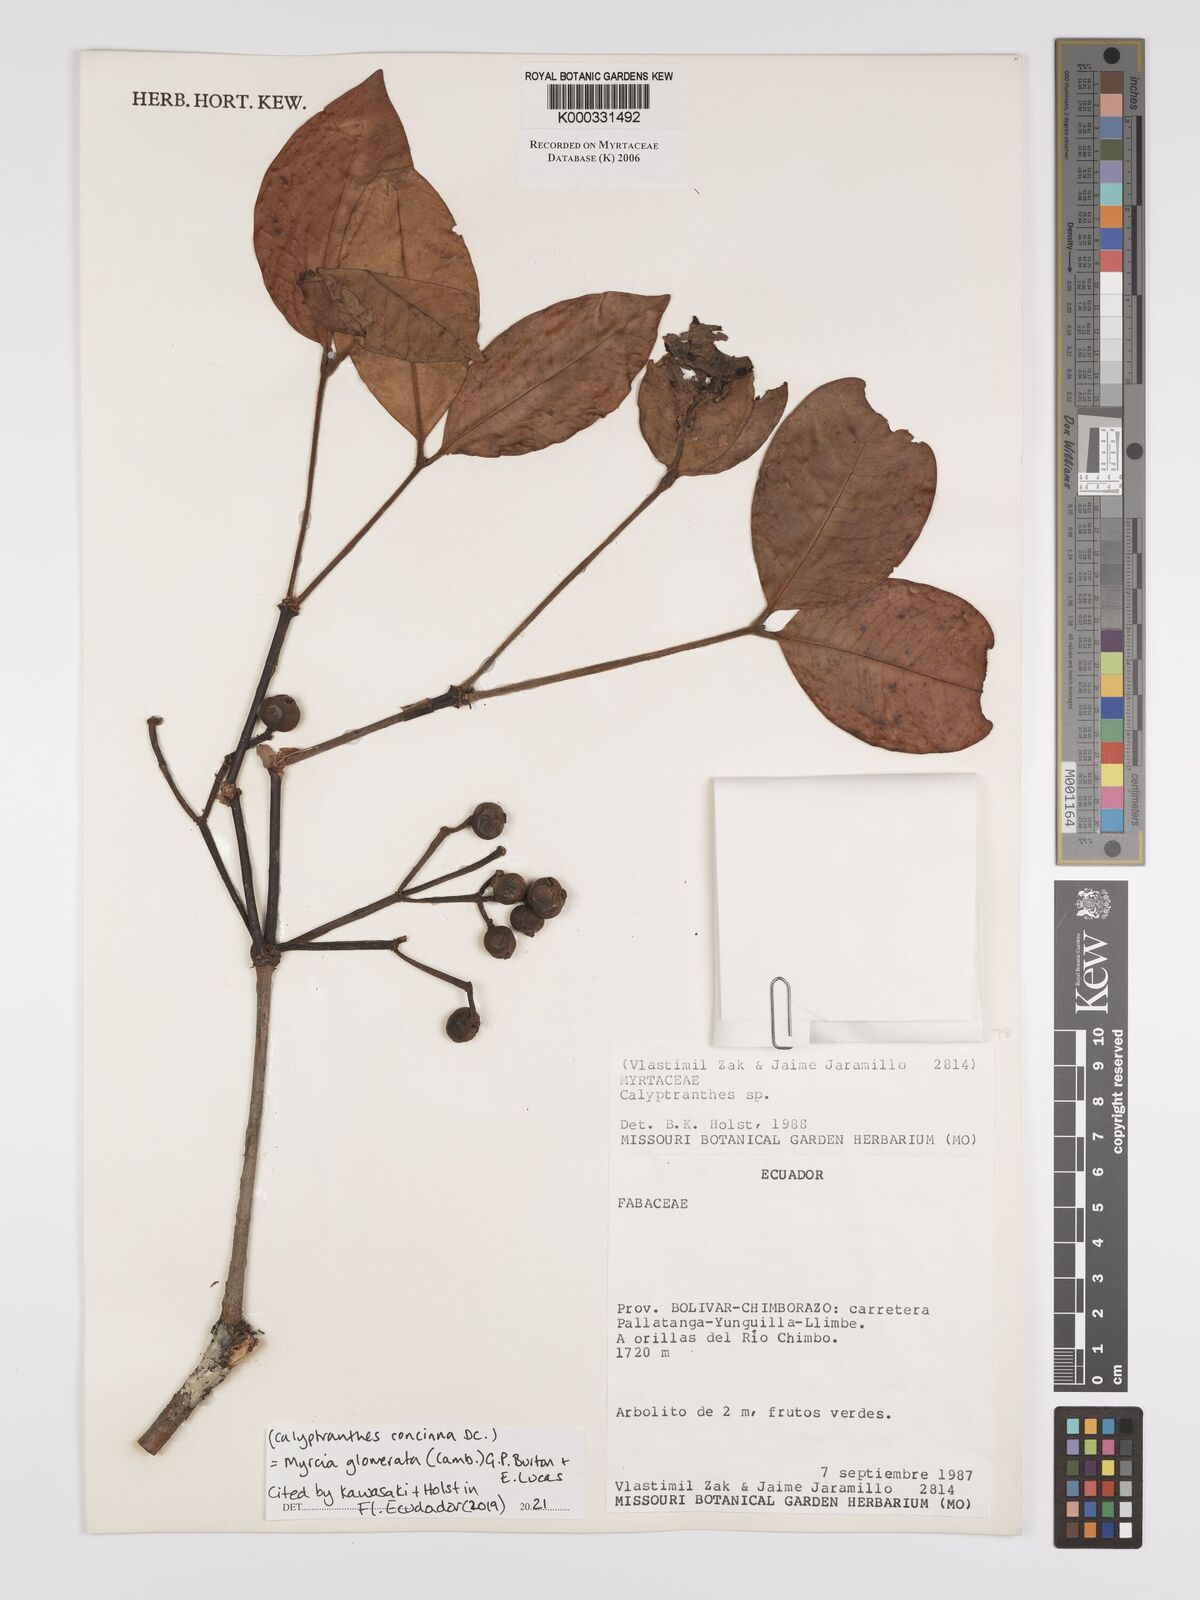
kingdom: Plantae
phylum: Tracheophyta
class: Magnoliopsida
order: Myrtales
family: Myrtaceae
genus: Calyptranthes
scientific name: Calyptranthes
